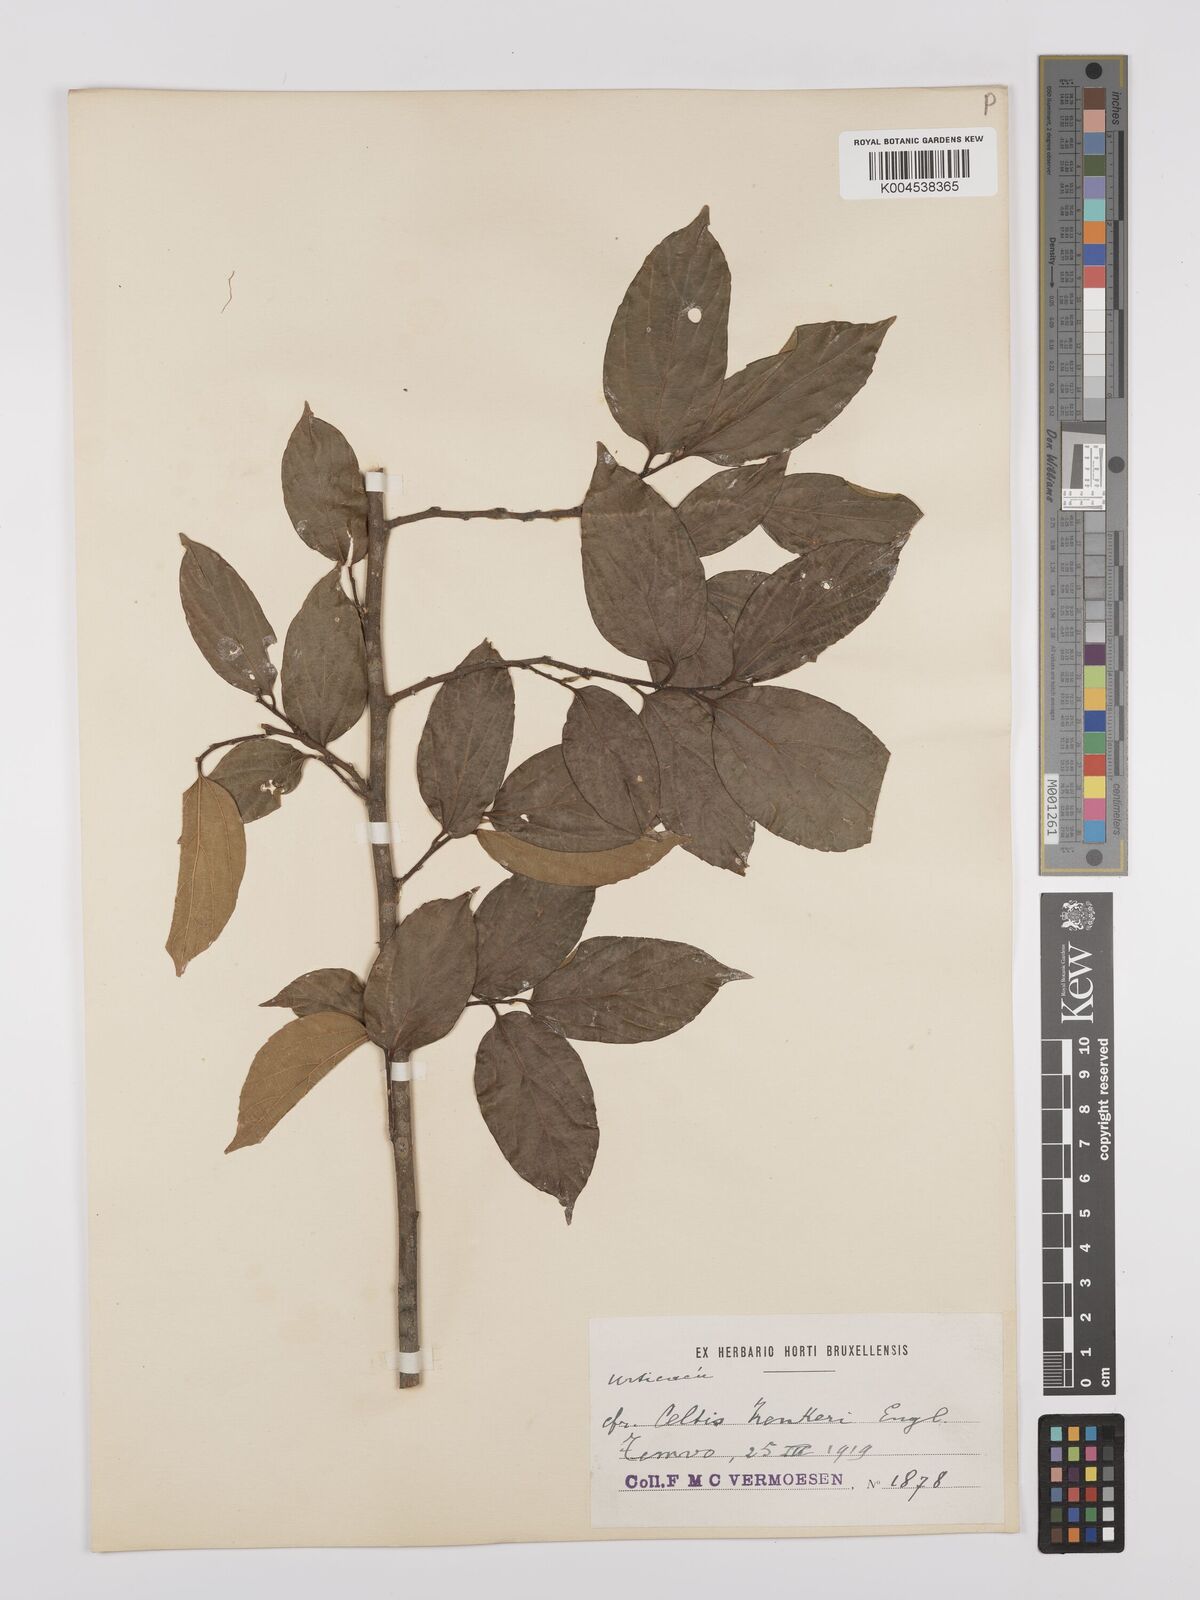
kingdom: Plantae
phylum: Tracheophyta
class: Magnoliopsida
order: Rosales
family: Cannabaceae
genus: Celtis
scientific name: Celtis zenkeri
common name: African celtis
